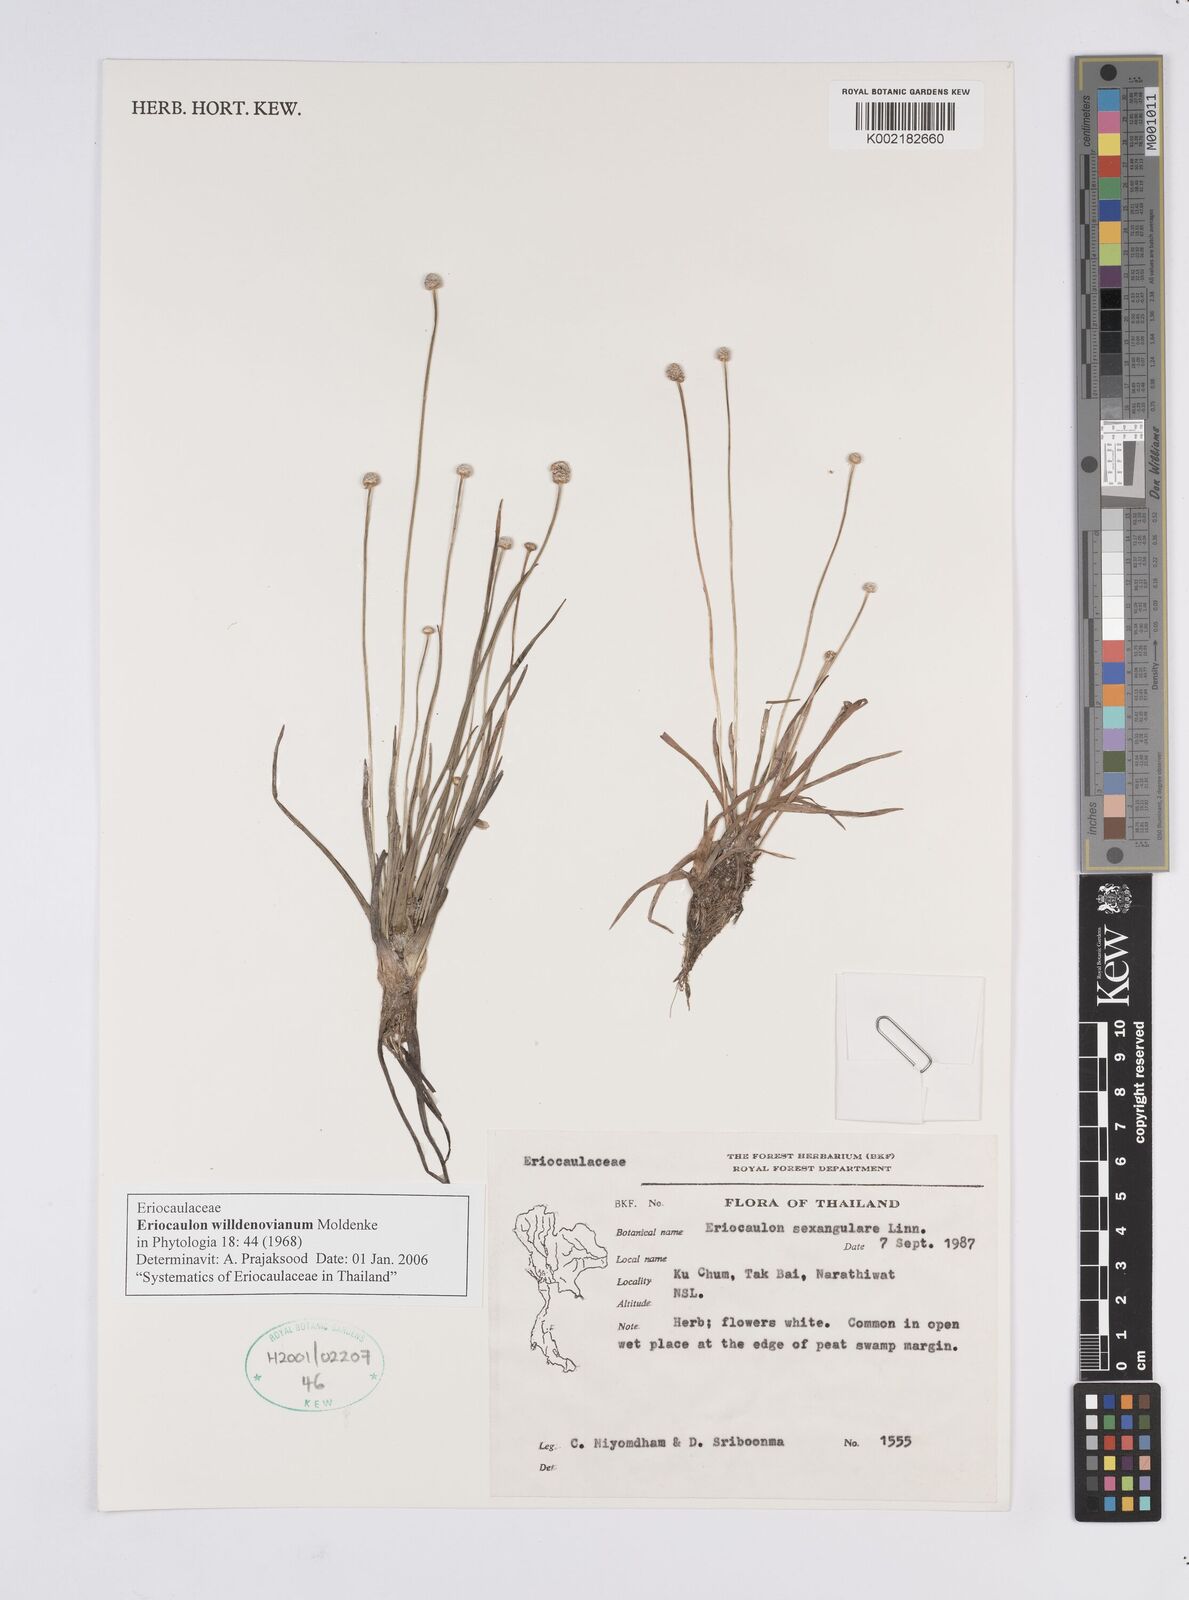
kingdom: Plantae
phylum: Tracheophyta
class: Liliopsida
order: Poales
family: Eriocaulaceae
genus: Eriocaulon
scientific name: Eriocaulon willdenovianum
